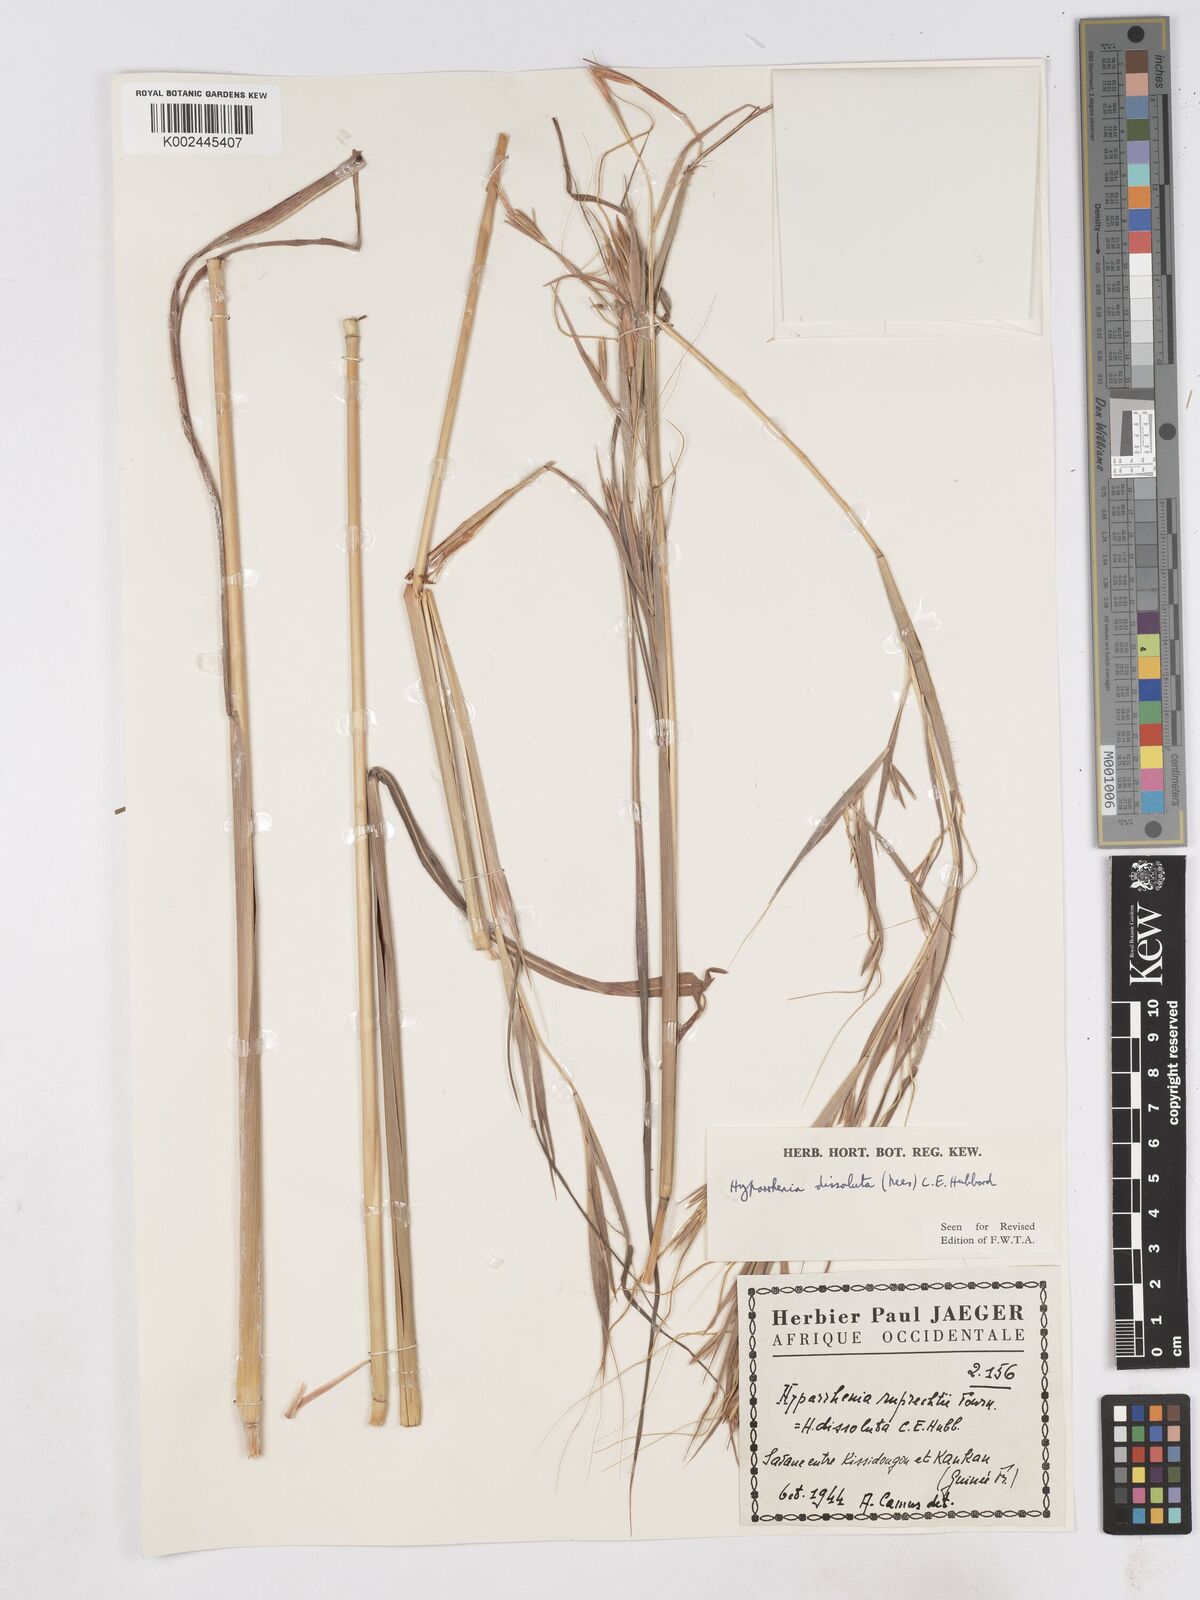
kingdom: Plantae
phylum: Tracheophyta
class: Liliopsida
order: Poales
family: Poaceae
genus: Hyperthelia
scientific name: Hyperthelia dissoluta
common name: Yellow thatching grass
